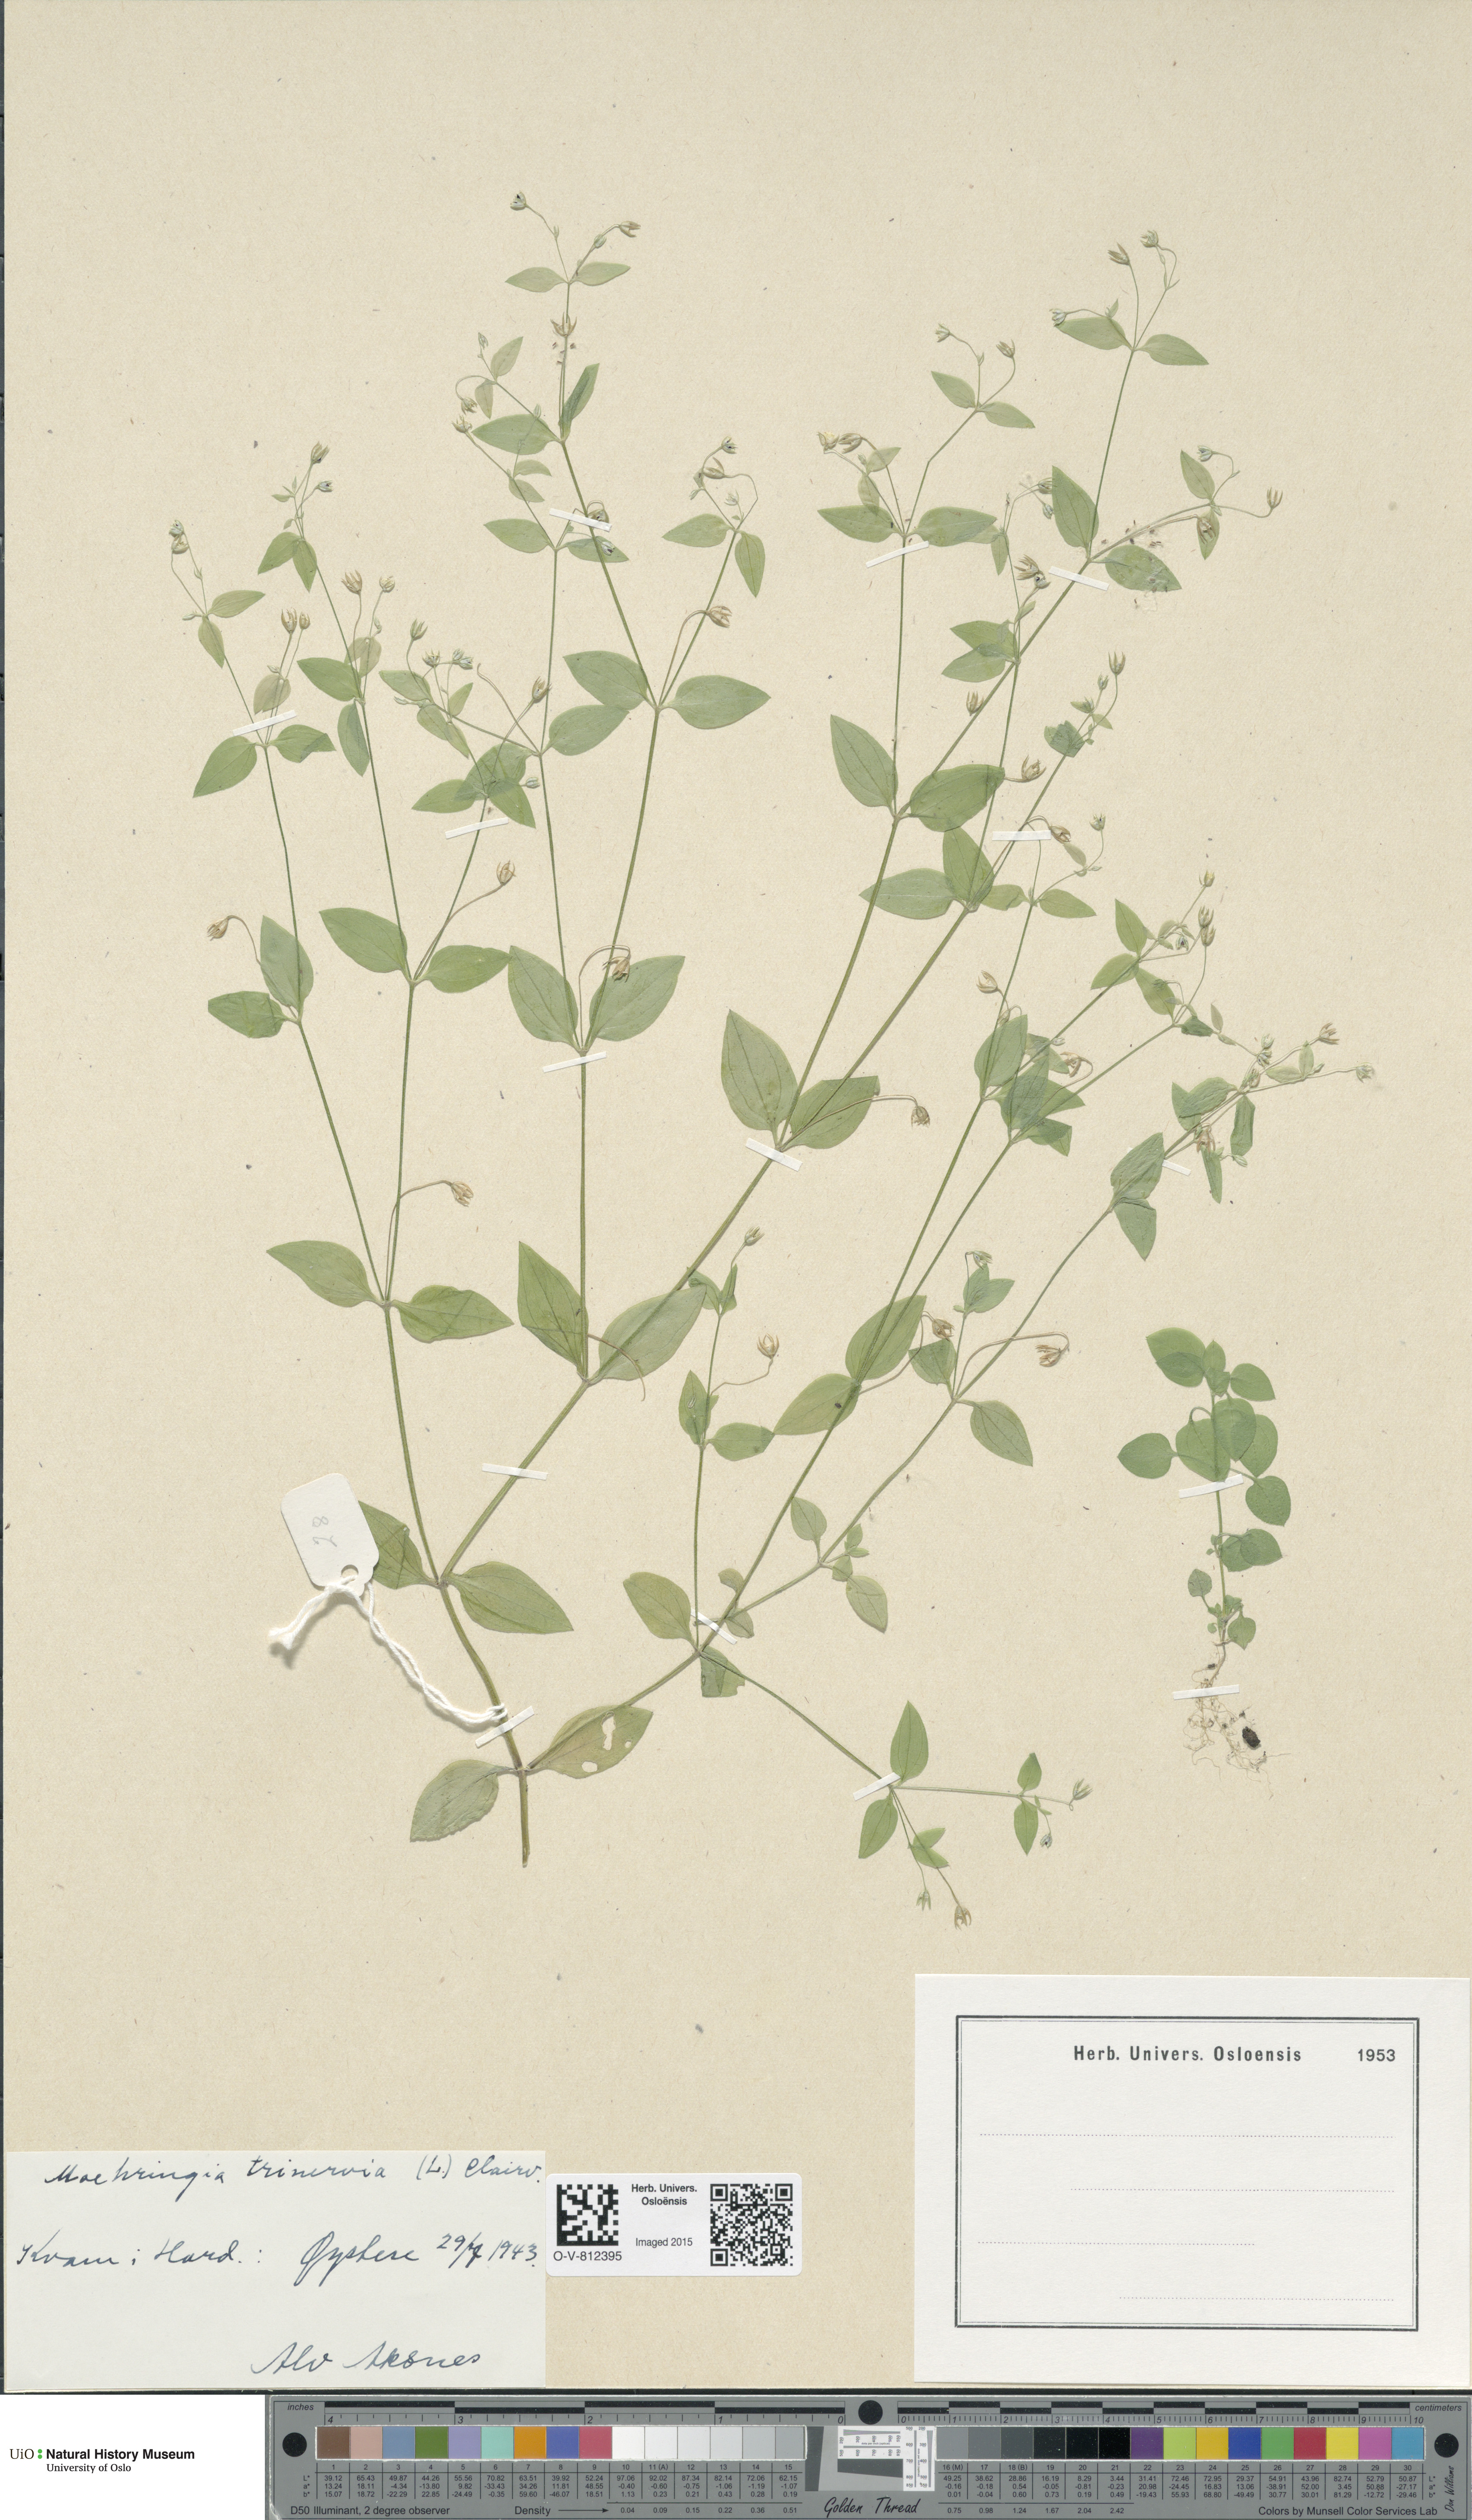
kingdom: Plantae
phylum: Tracheophyta
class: Magnoliopsida
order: Caryophyllales
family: Caryophyllaceae
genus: Moehringia
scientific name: Moehringia trinervia
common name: Three-nerved sandwort
